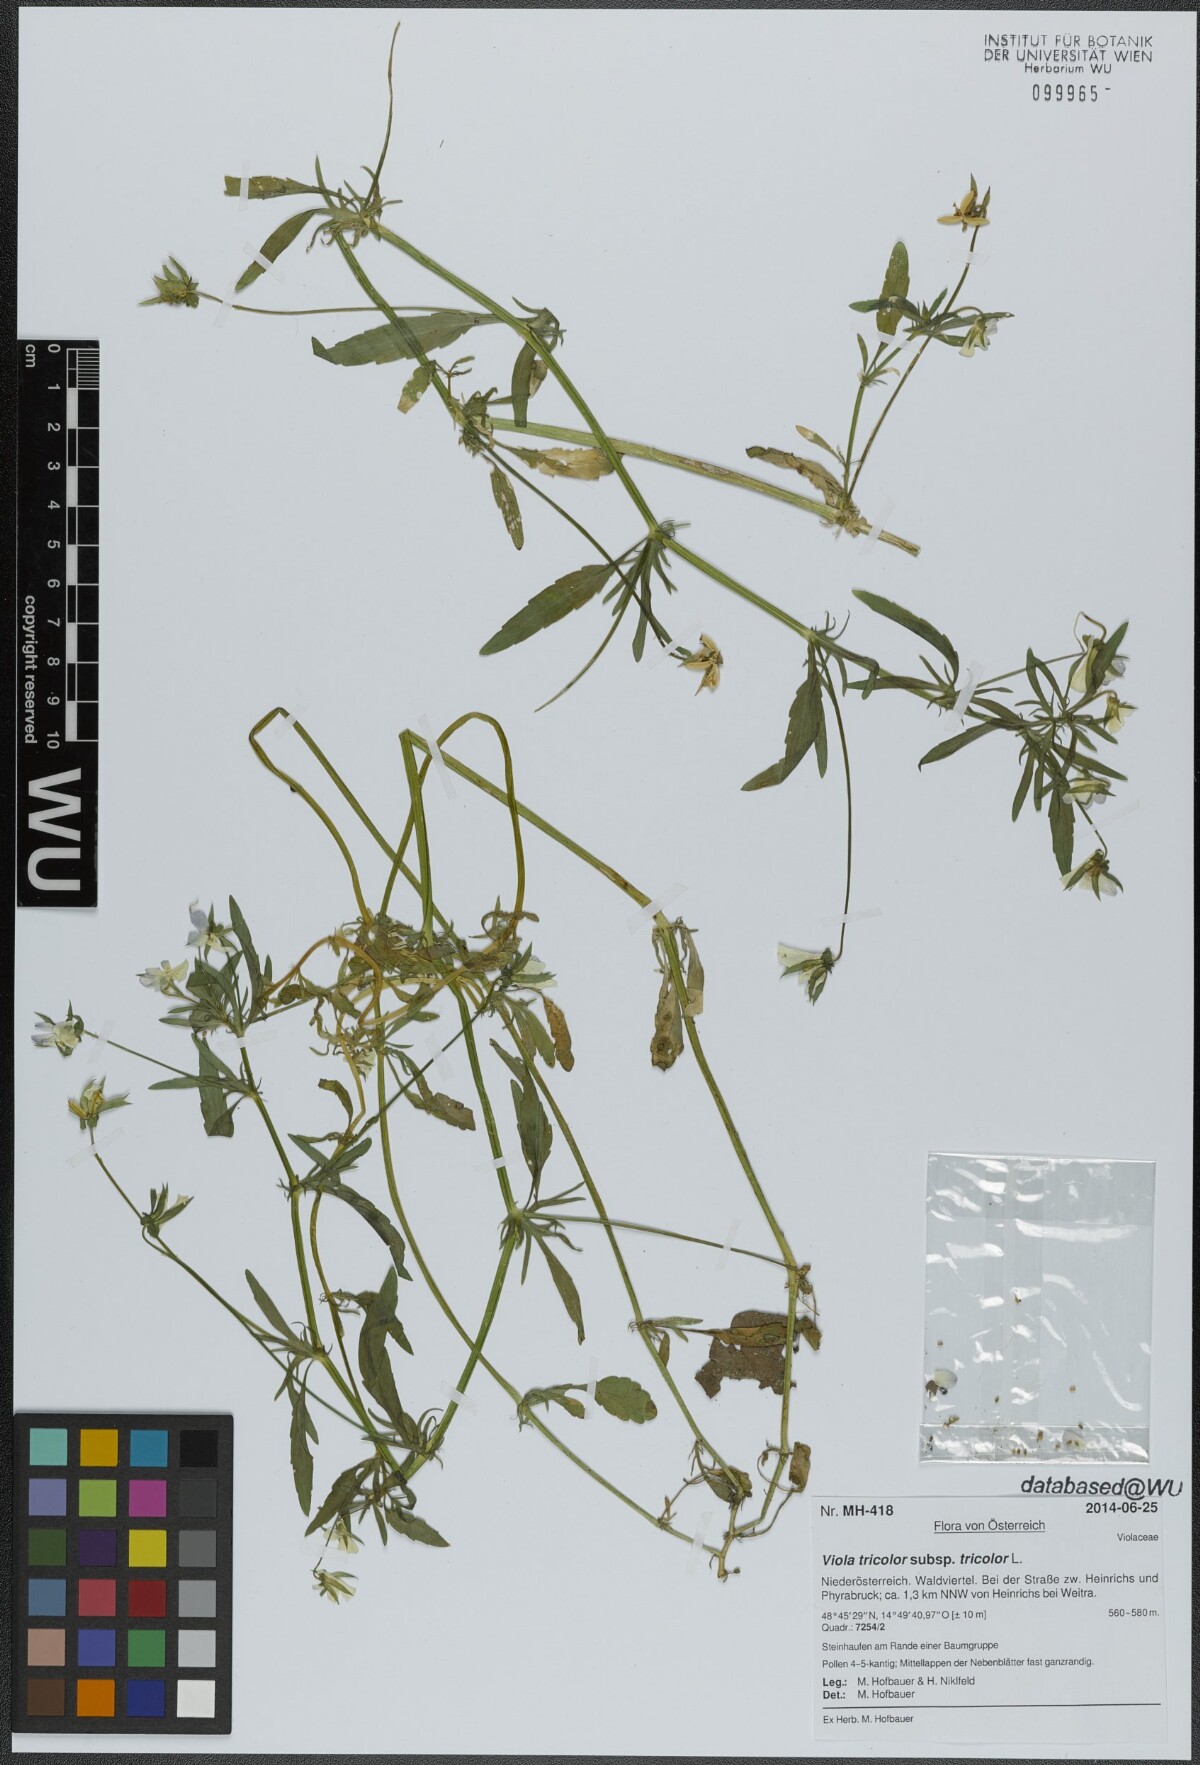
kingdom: Plantae
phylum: Tracheophyta
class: Magnoliopsida
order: Malpighiales
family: Violaceae
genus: Viola
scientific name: Viola tricolor
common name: Pansy
